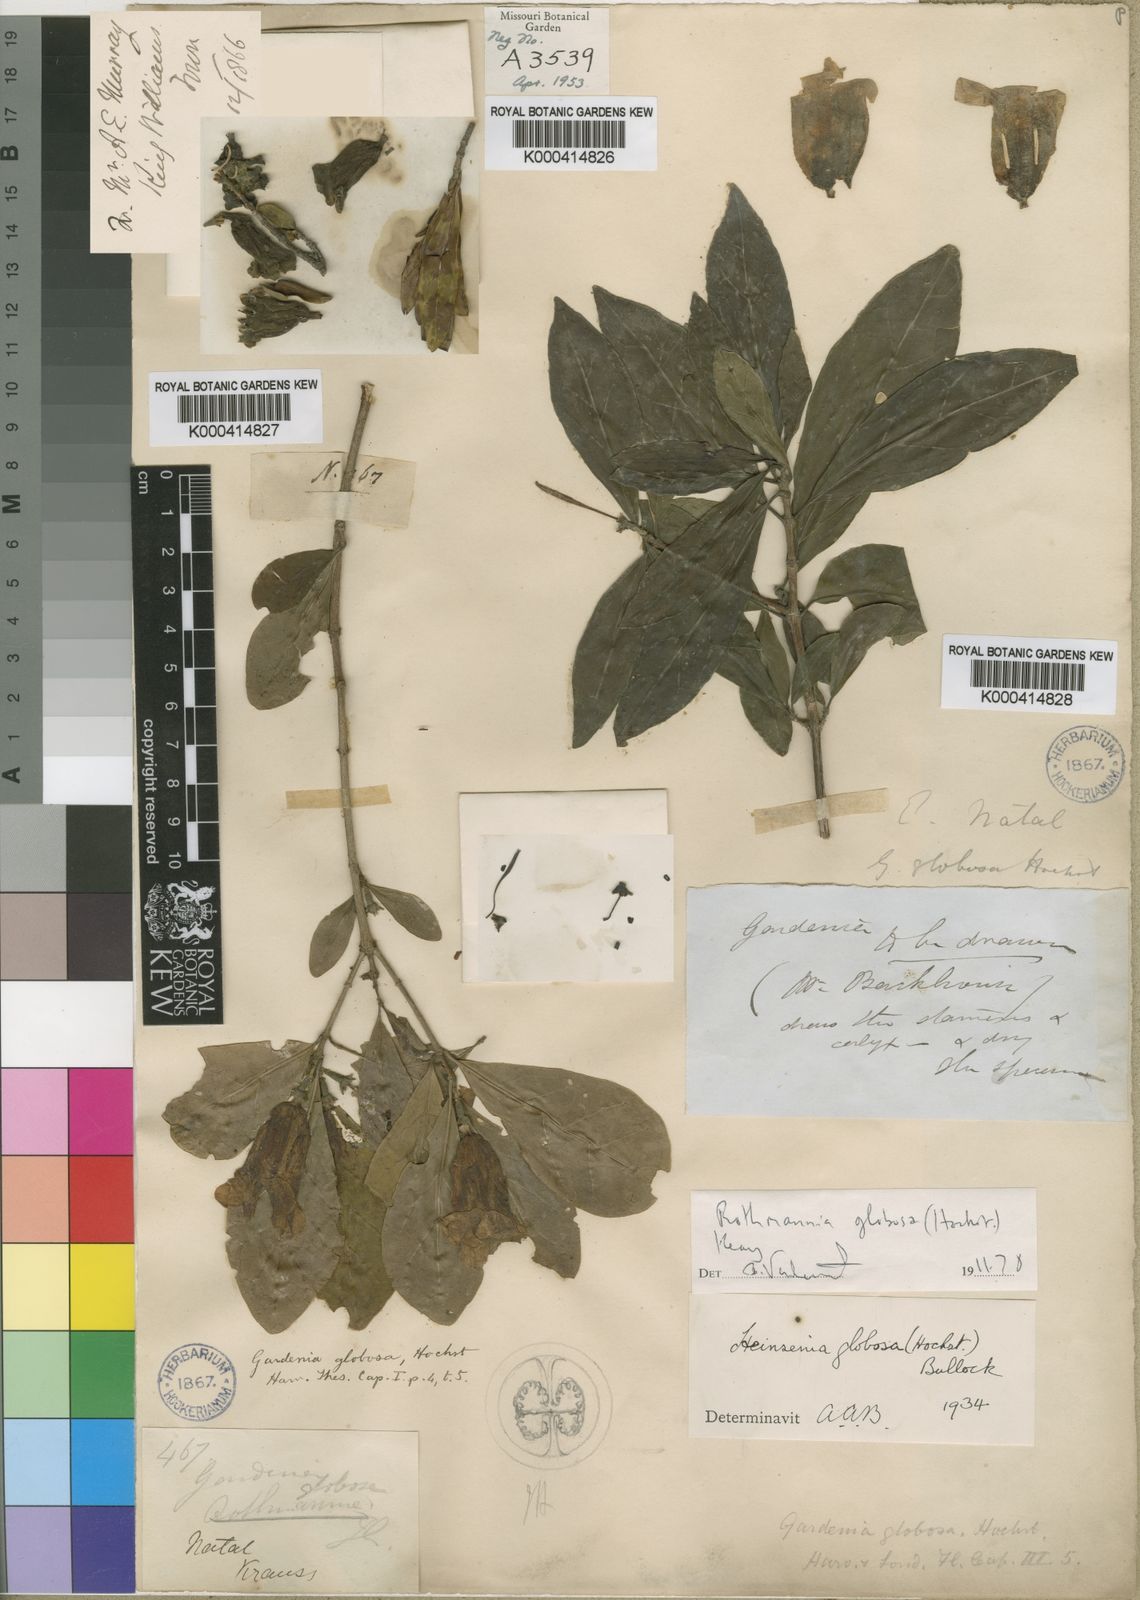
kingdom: Plantae
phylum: Tracheophyta
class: Magnoliopsida
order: Gentianales
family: Rubiaceae
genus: Rothmannia
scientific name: Rothmannia globosa
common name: September bells
